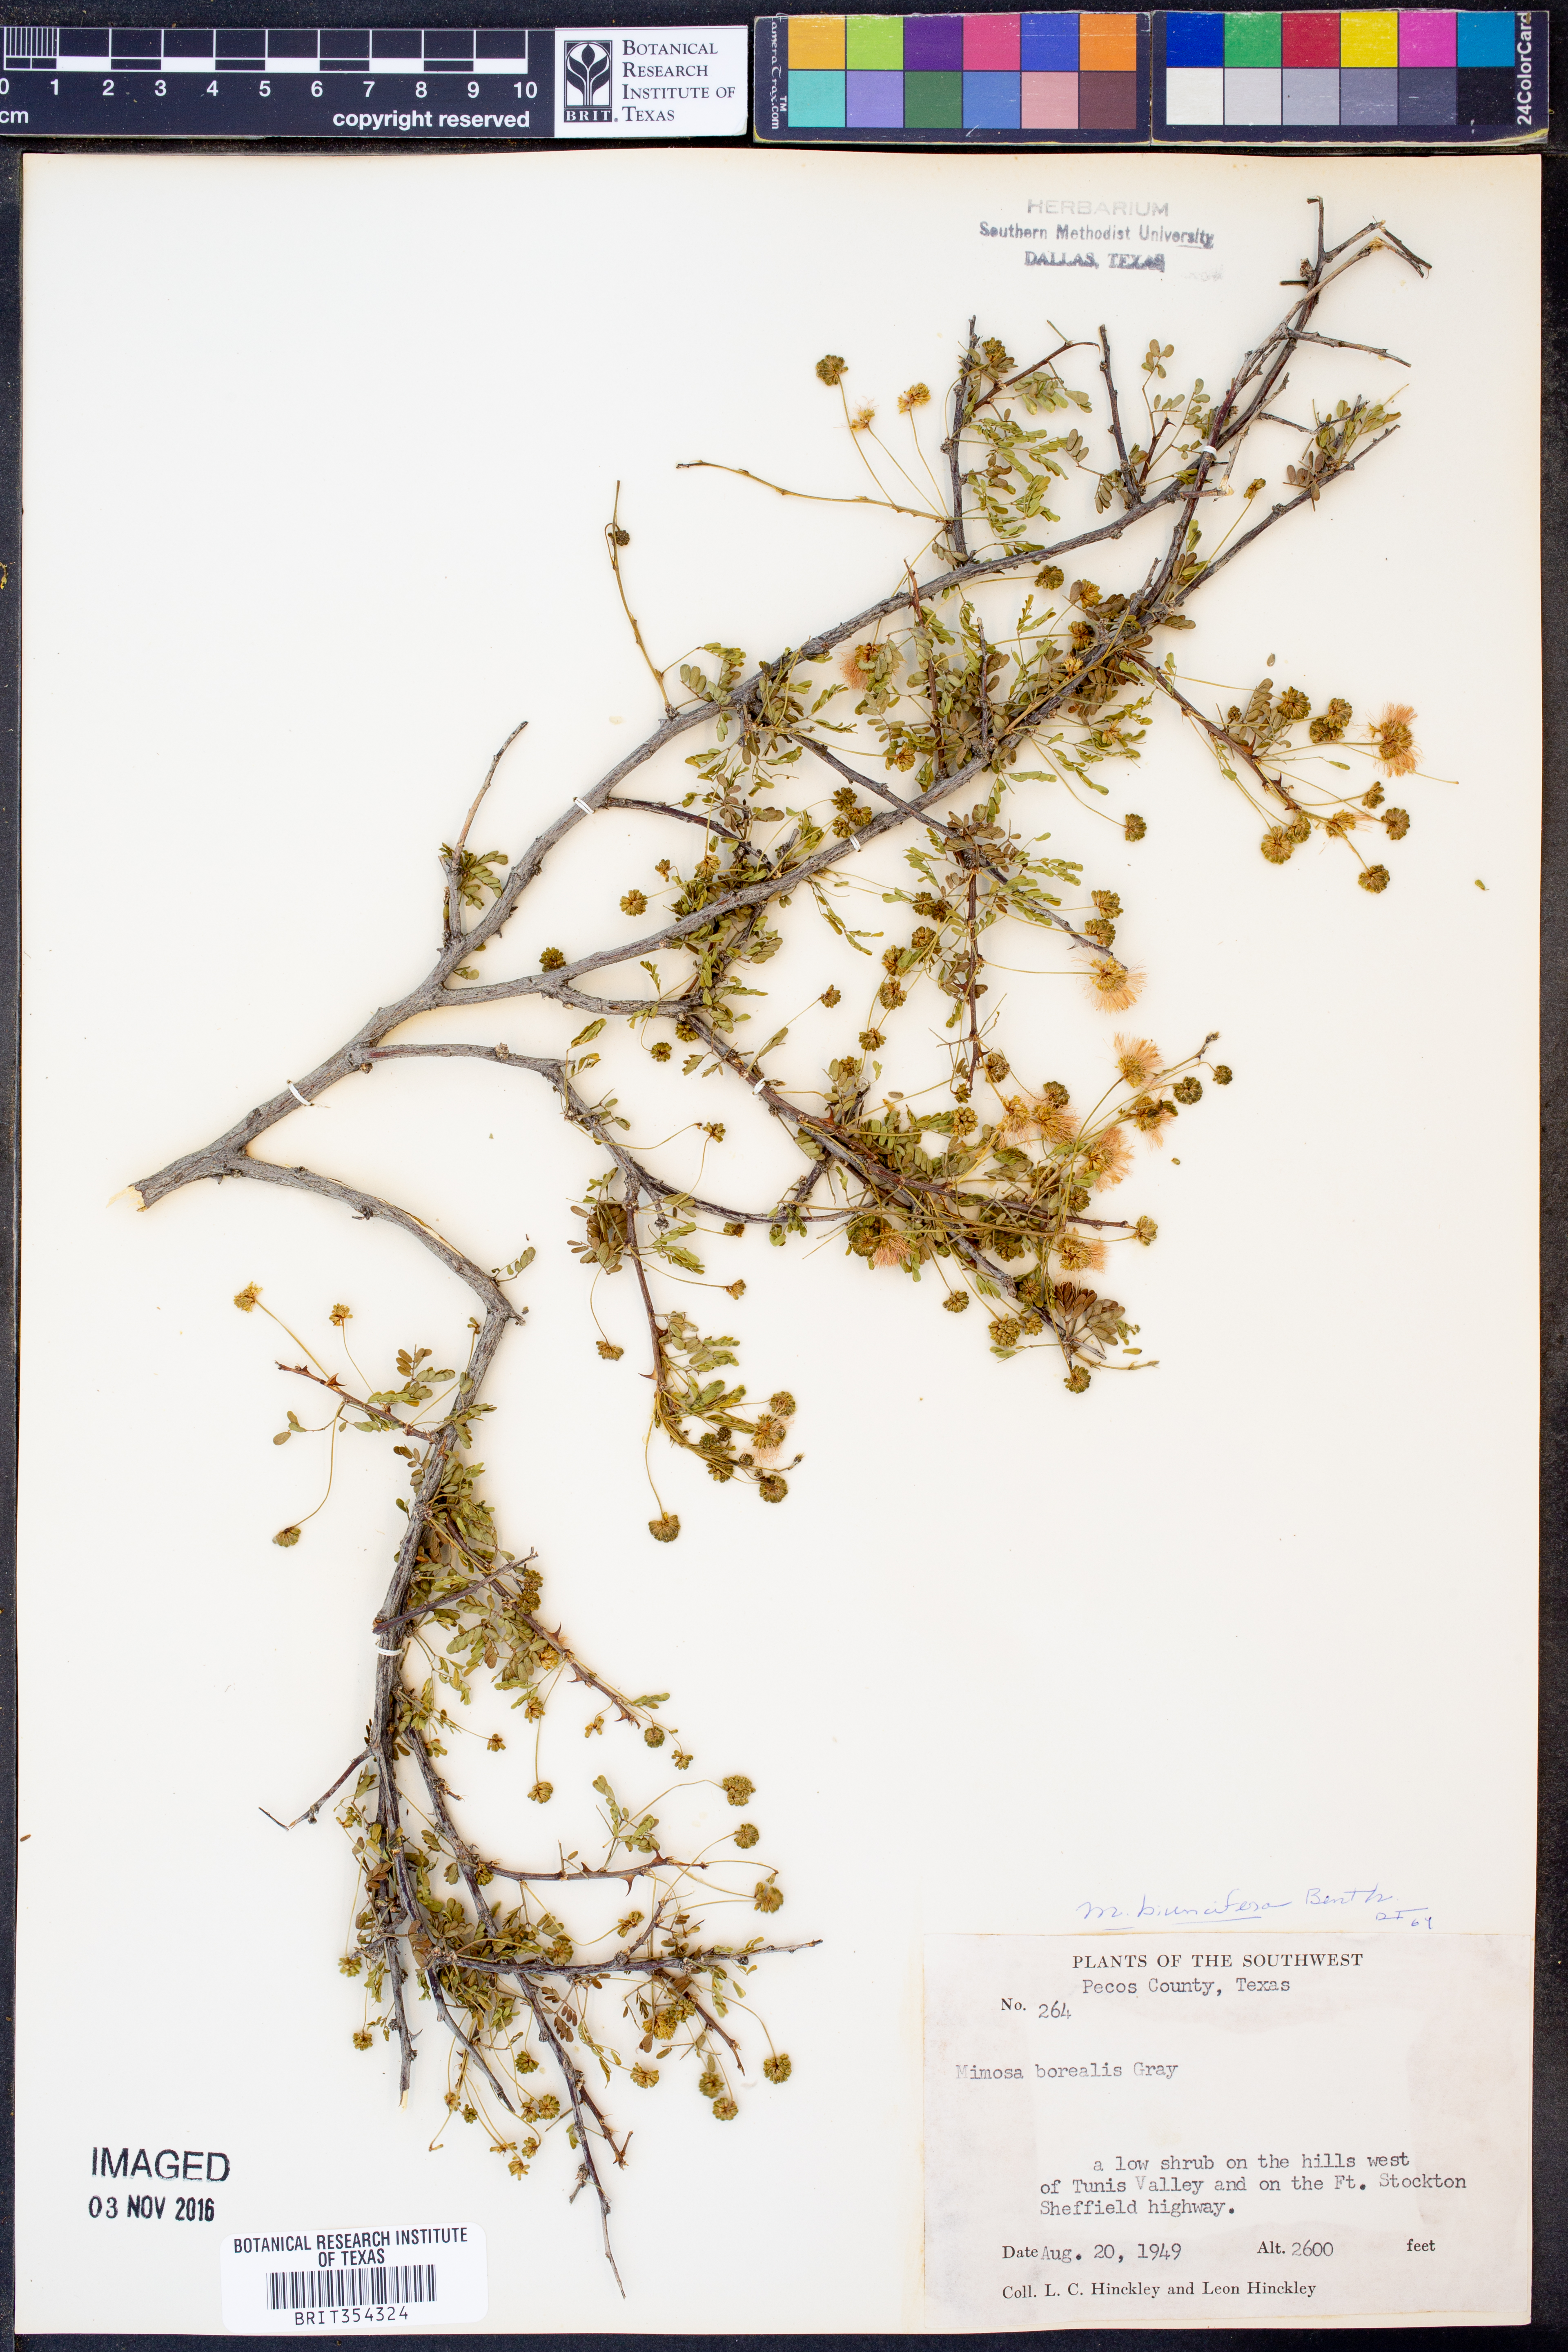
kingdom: Plantae
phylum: Tracheophyta
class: Magnoliopsida
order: Fabales
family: Fabaceae
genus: Mimosa
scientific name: Mimosa biuncifera
